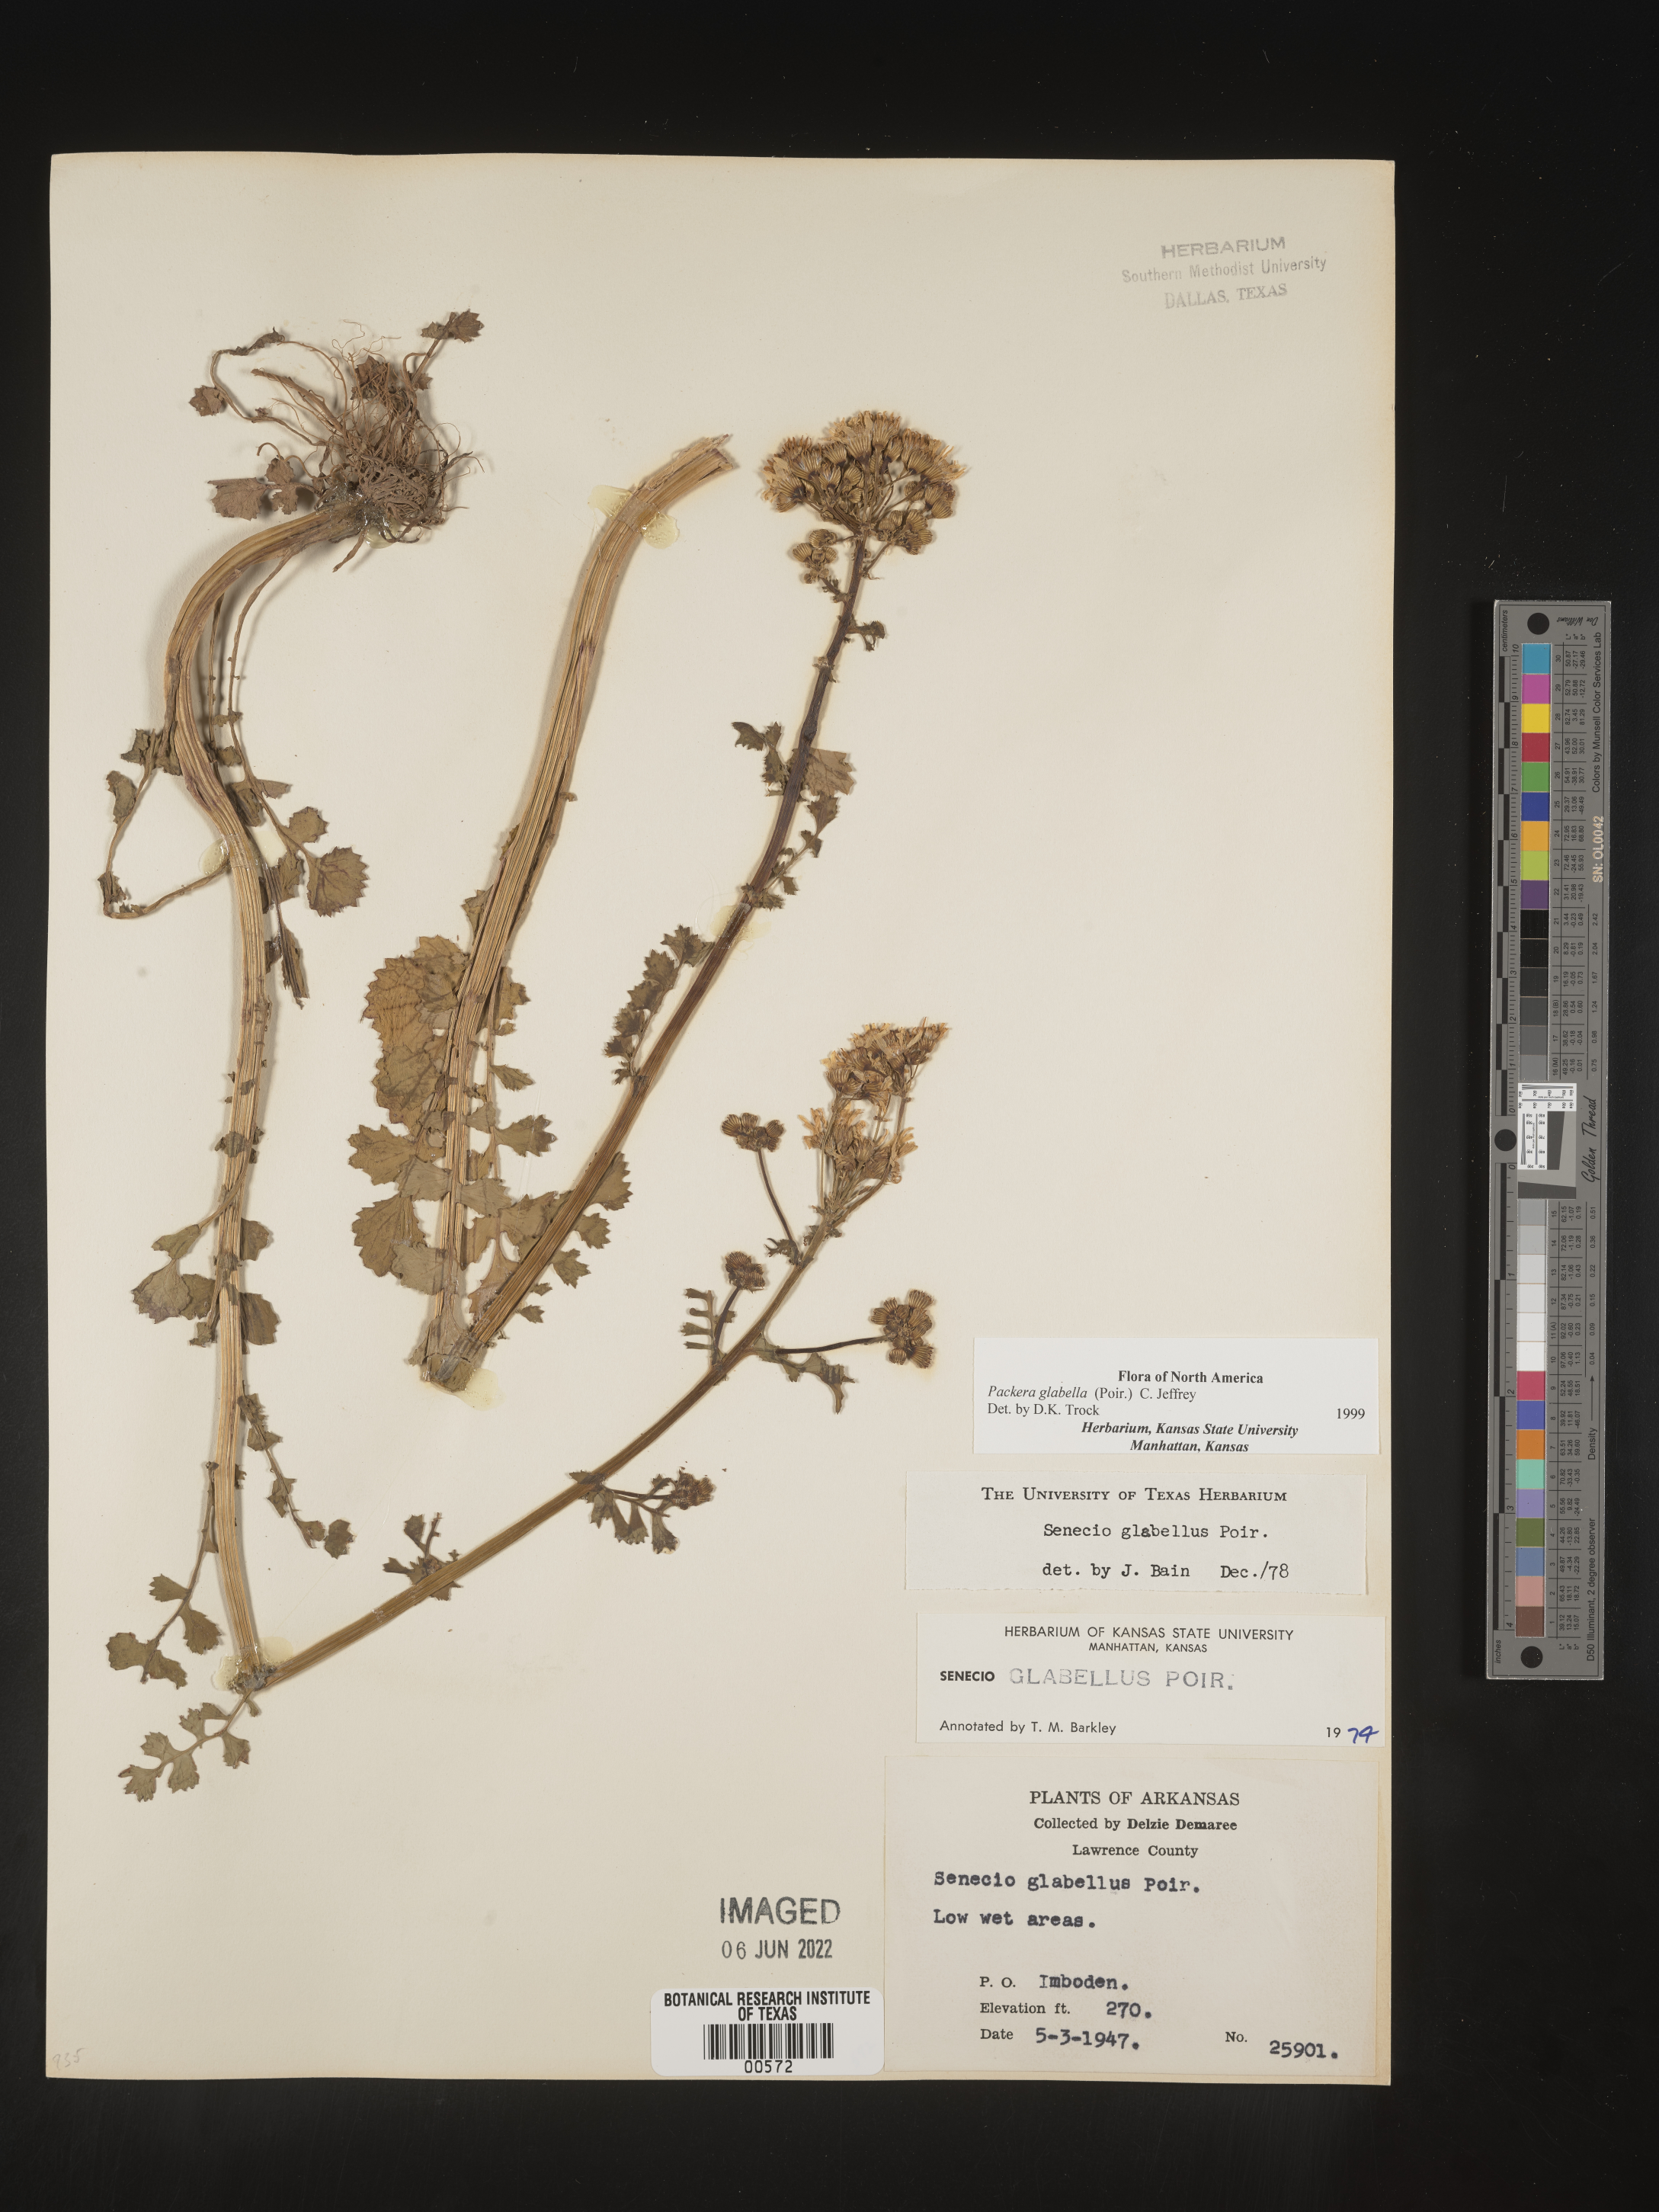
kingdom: Plantae
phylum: Tracheophyta
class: Magnoliopsida
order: Asterales
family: Asteraceae
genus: Packera
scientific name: Packera glabella
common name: Butterweed
